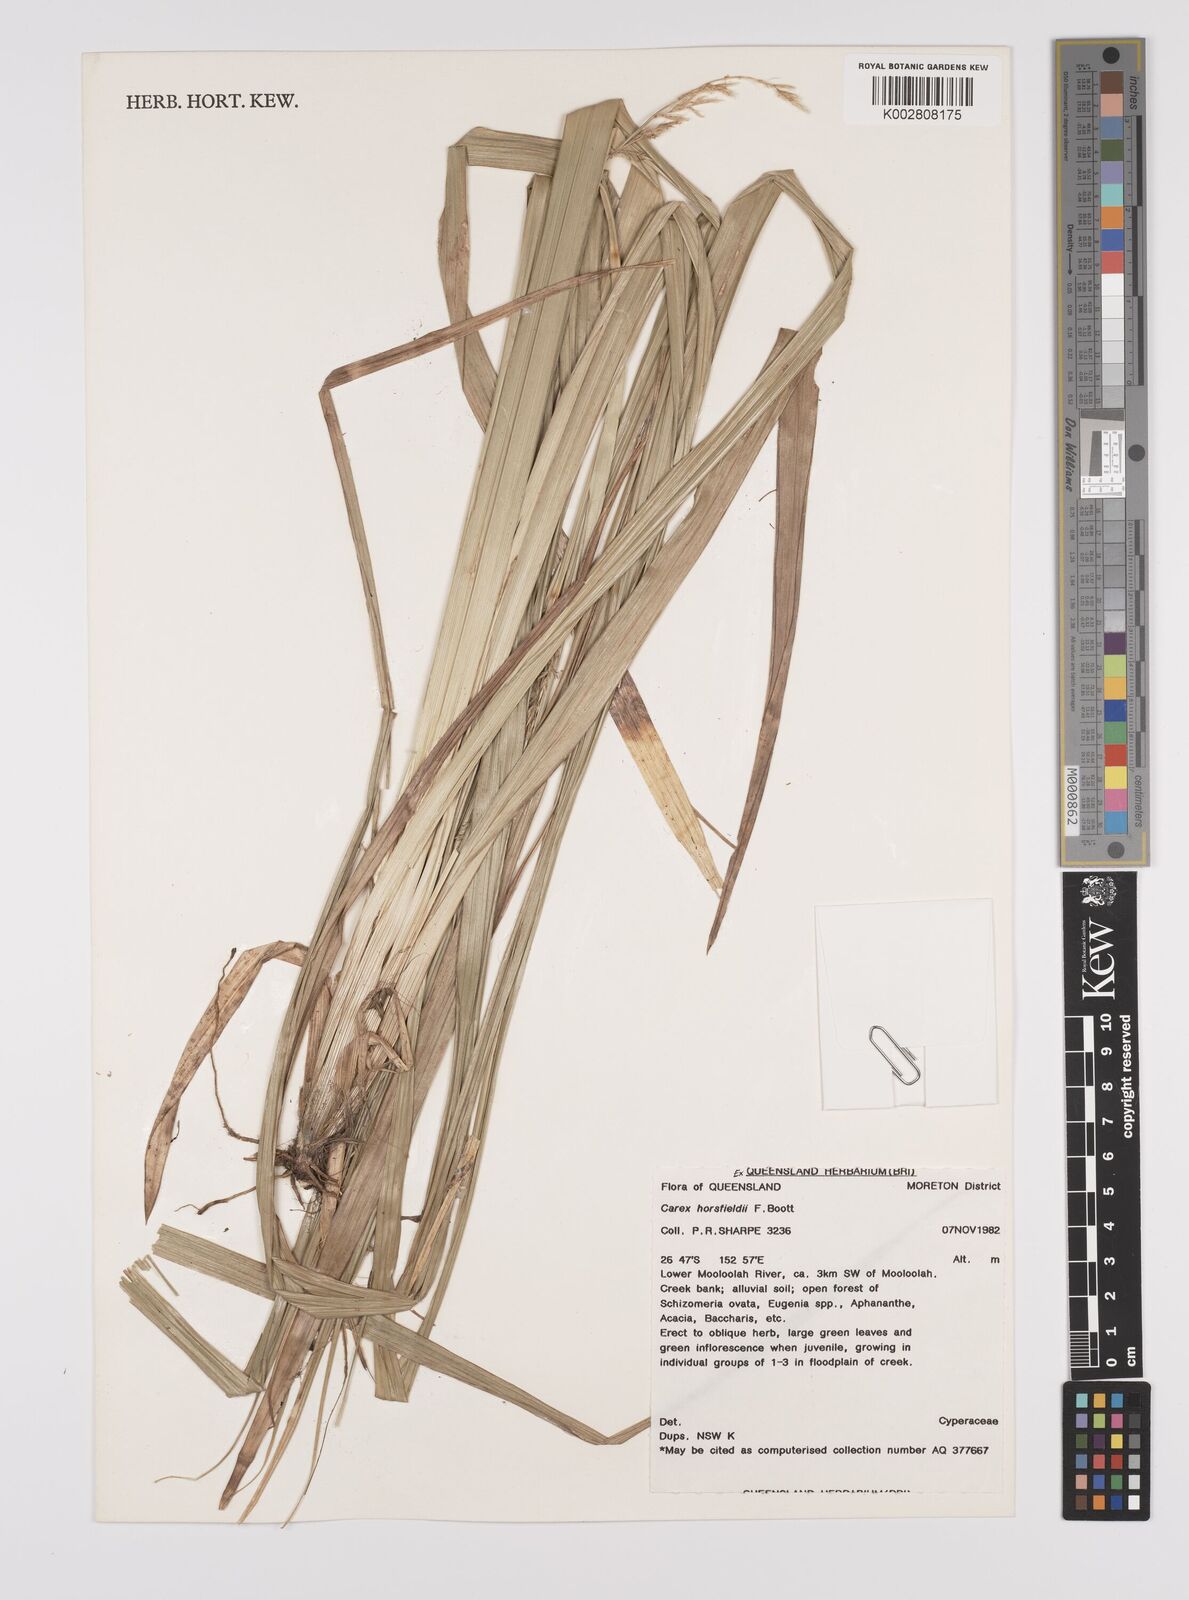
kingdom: Plantae
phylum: Tracheophyta
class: Liliopsida
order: Poales
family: Cyperaceae
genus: Carex
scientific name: Carex horsfieldii
